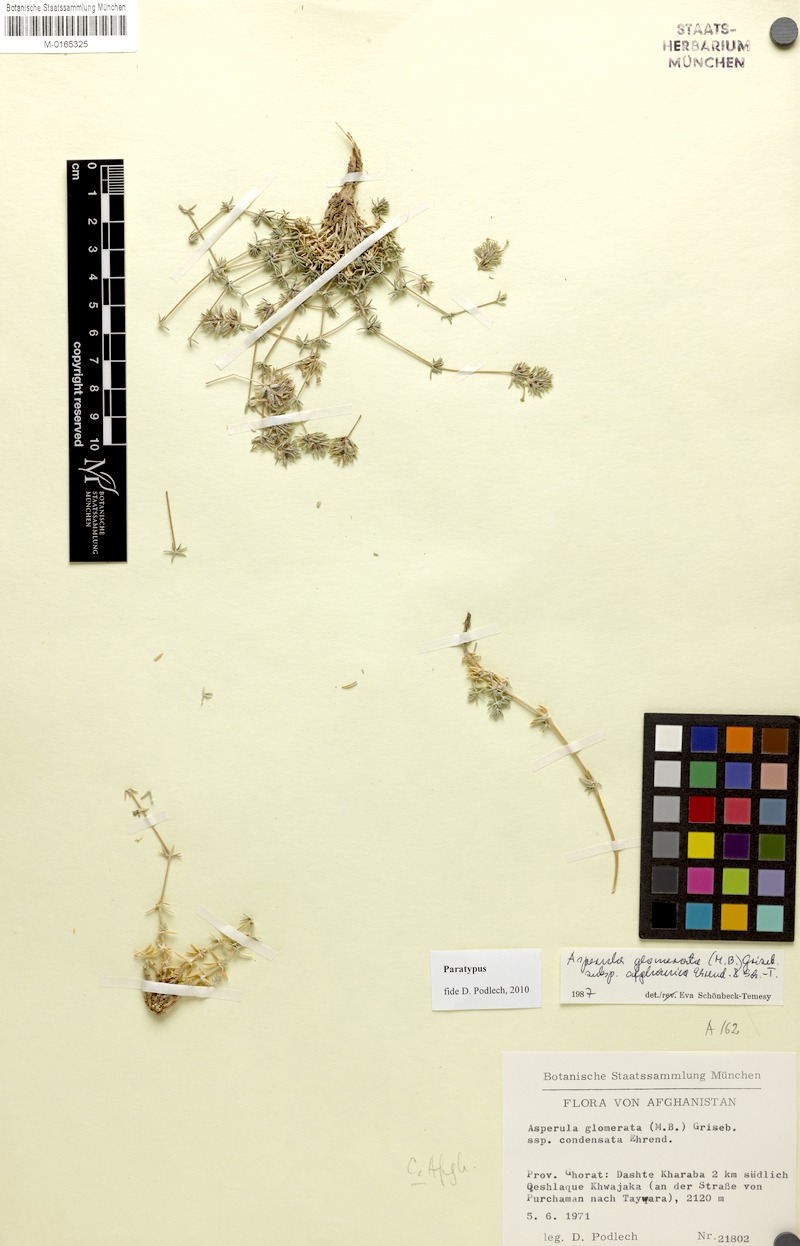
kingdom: Plantae
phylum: Tracheophyta
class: Magnoliopsida
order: Gentianales
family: Rubiaceae
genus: Asperula
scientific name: Asperula glomerata
